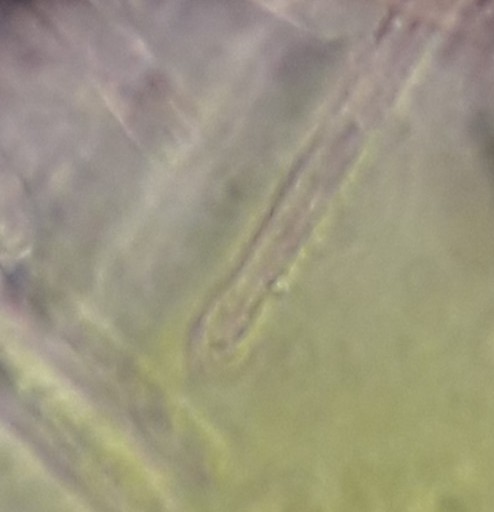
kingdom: Fungi
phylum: Ascomycota
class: Leotiomycetes
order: Helotiales
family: Lachnaceae
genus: Lachnum
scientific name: Lachnum impudicum
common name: vinter-frynseskive
